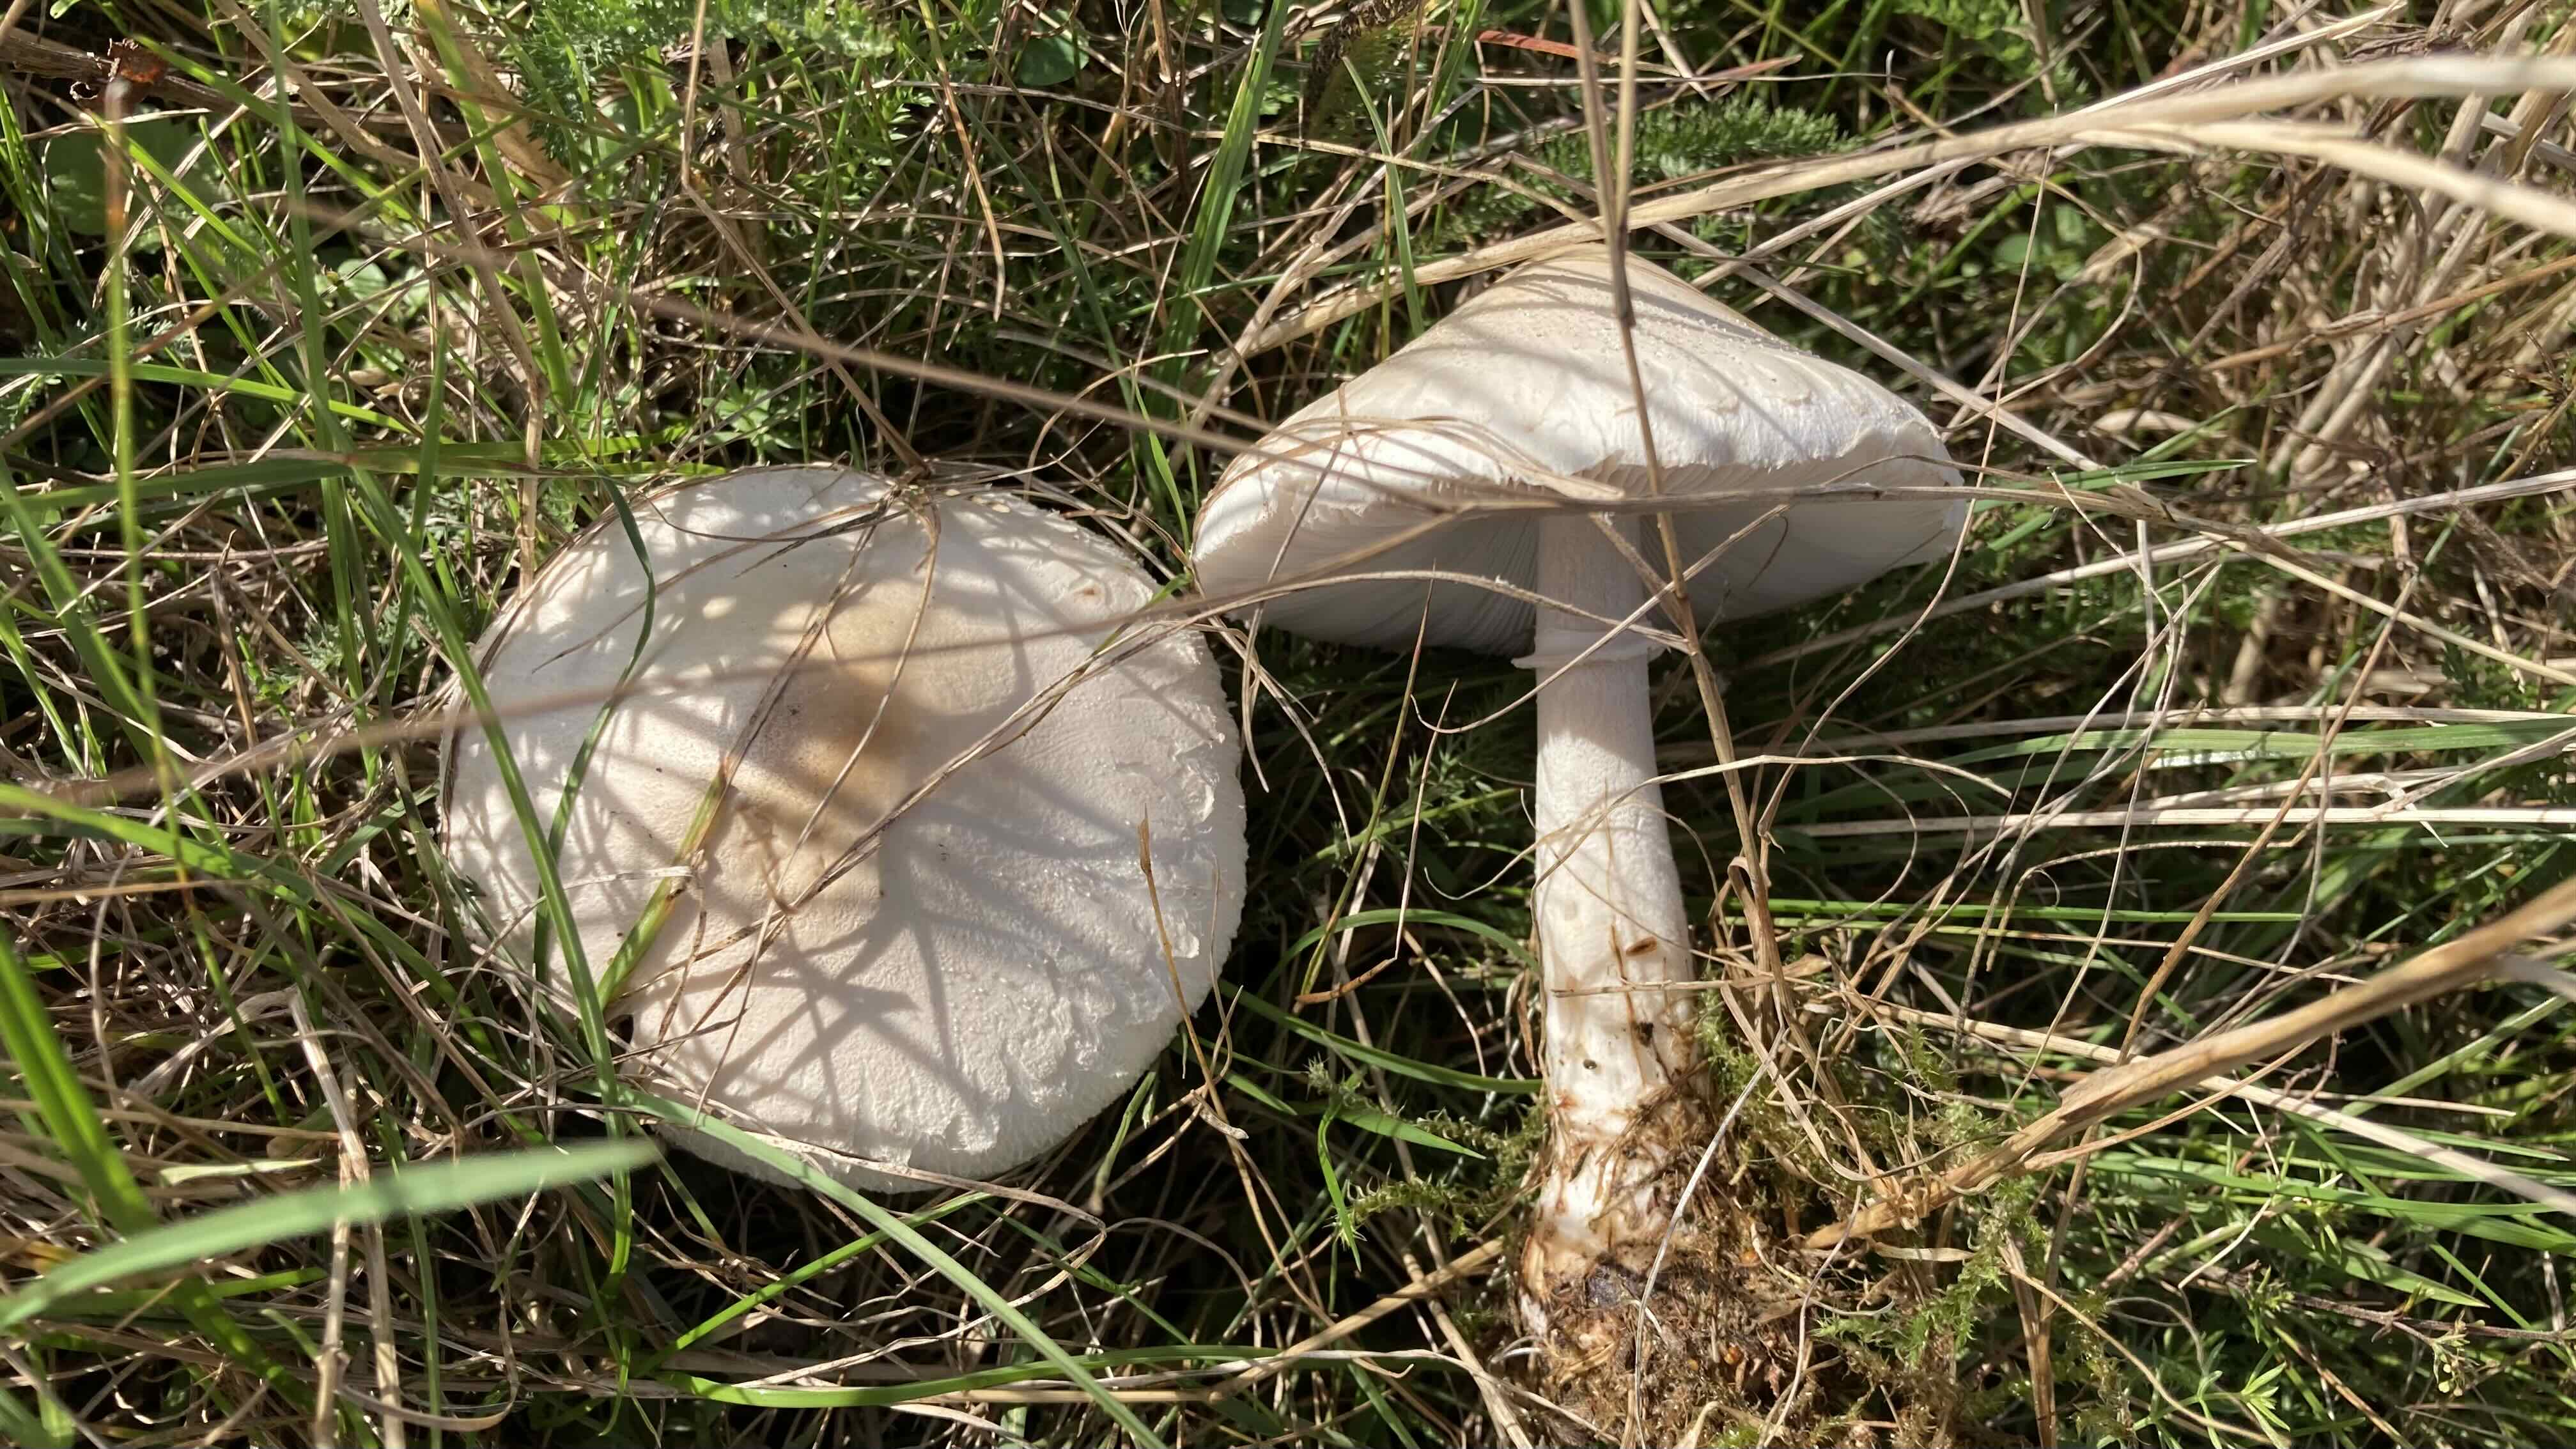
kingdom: Fungi
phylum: Basidiomycota
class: Agaricomycetes
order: Agaricales
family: Agaricaceae
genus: Macrolepiota
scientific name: Macrolepiota excoriata
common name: mark-kæmpeparasolhat
